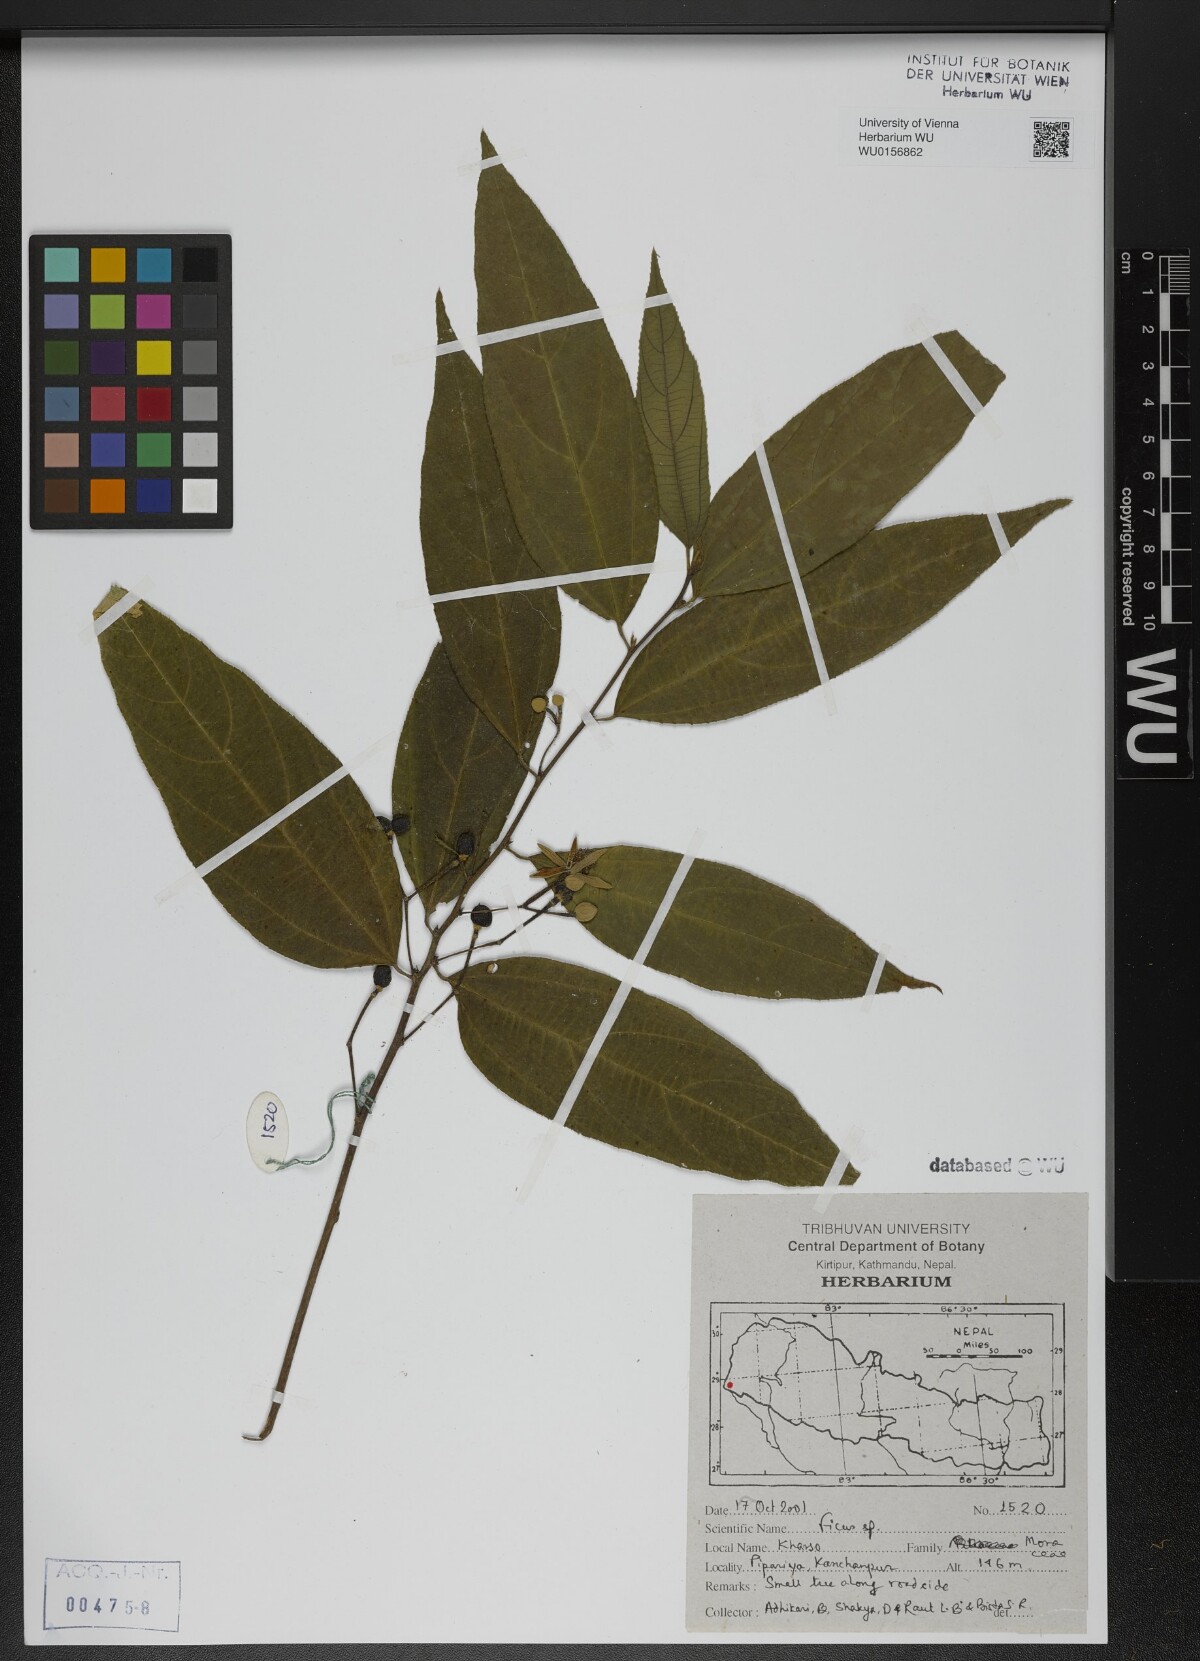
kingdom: Plantae
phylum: Tracheophyta
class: Magnoliopsida
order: Malvales
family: Malvaceae
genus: Grewia
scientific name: Grewia serrulata
